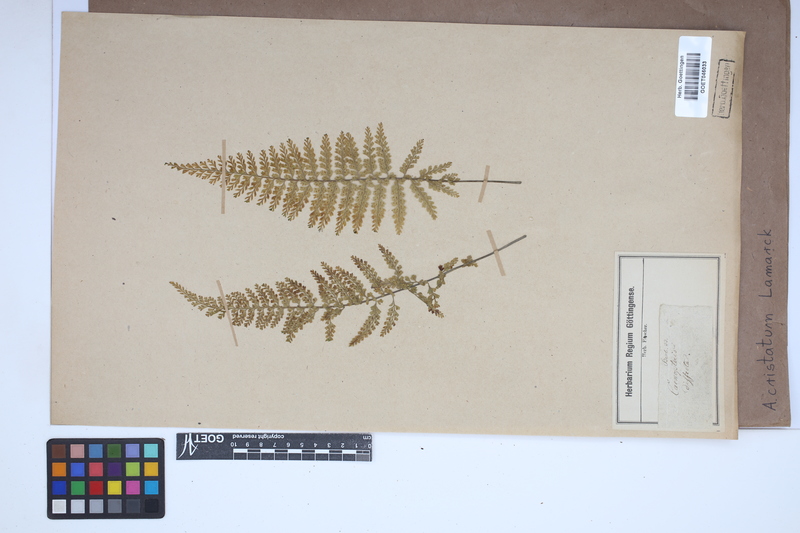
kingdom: Plantae
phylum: Tracheophyta
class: Polypodiopsida
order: Polypodiales
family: Aspleniaceae
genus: Asplenium
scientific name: Asplenium cristatum
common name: Parsley spleenwort
